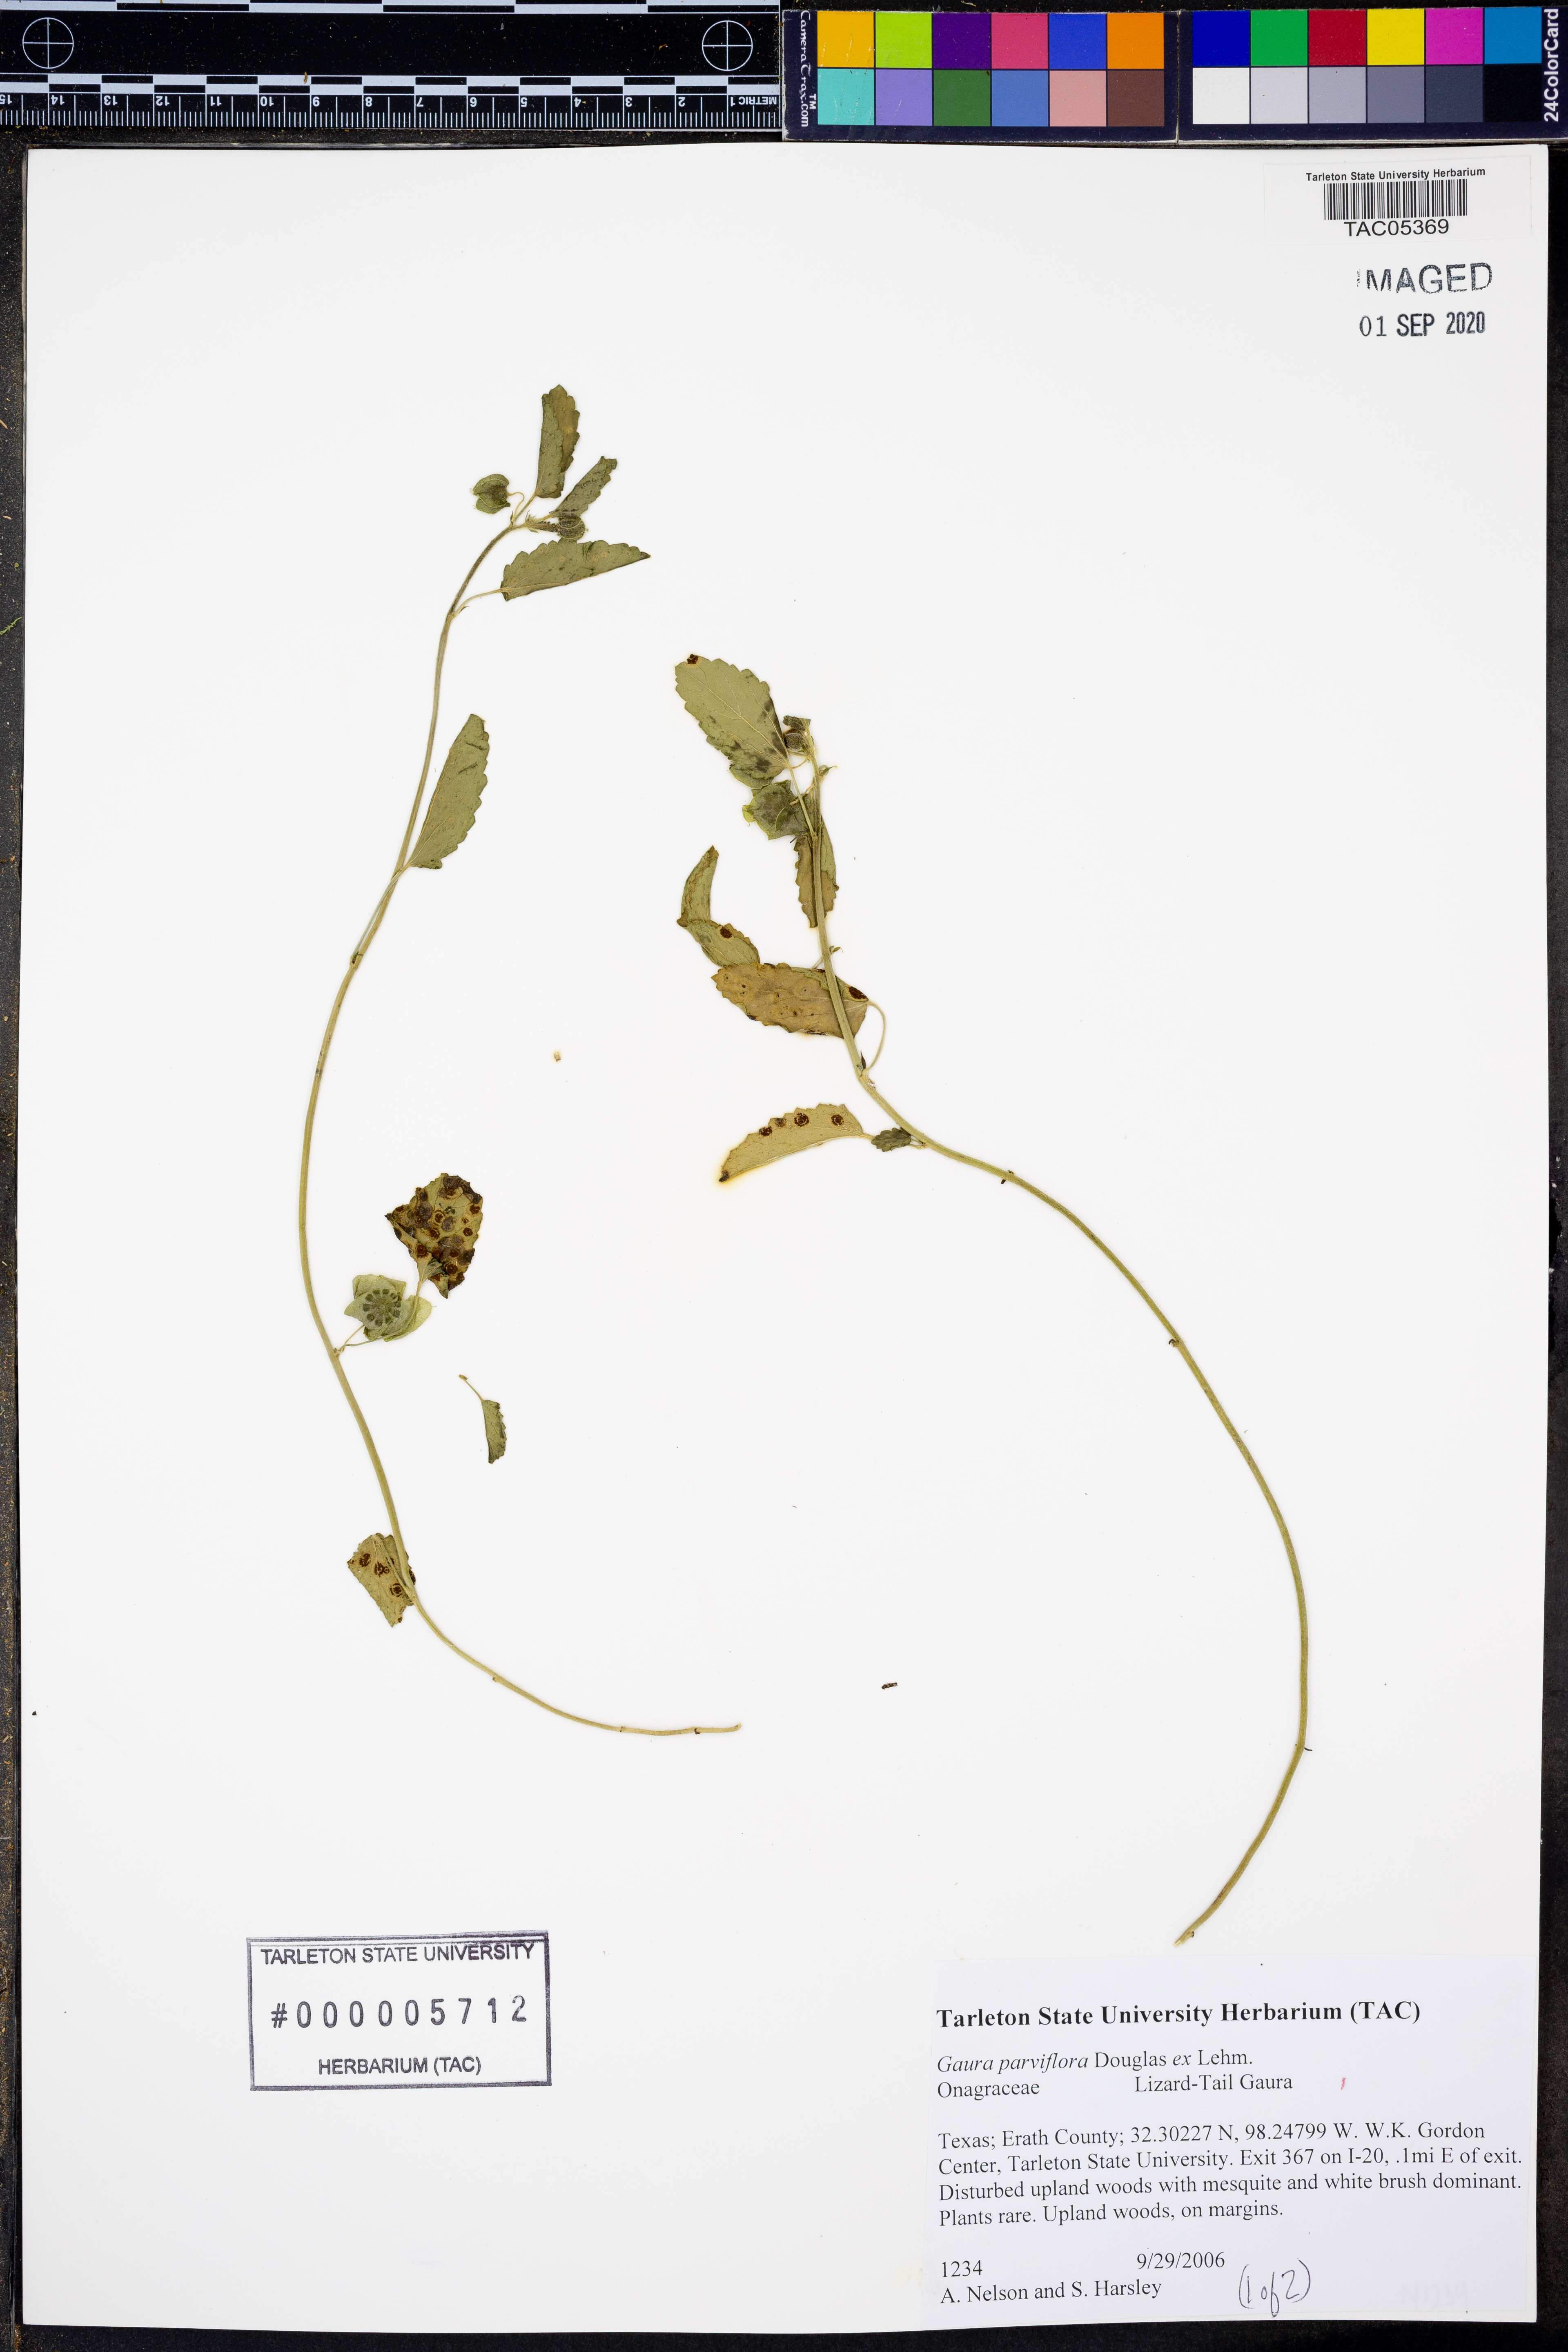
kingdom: Plantae
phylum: Tracheophyta
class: Magnoliopsida
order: Myrtales
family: Onagraceae
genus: Oenothera
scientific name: Oenothera curtiflora
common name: Velvetweed
